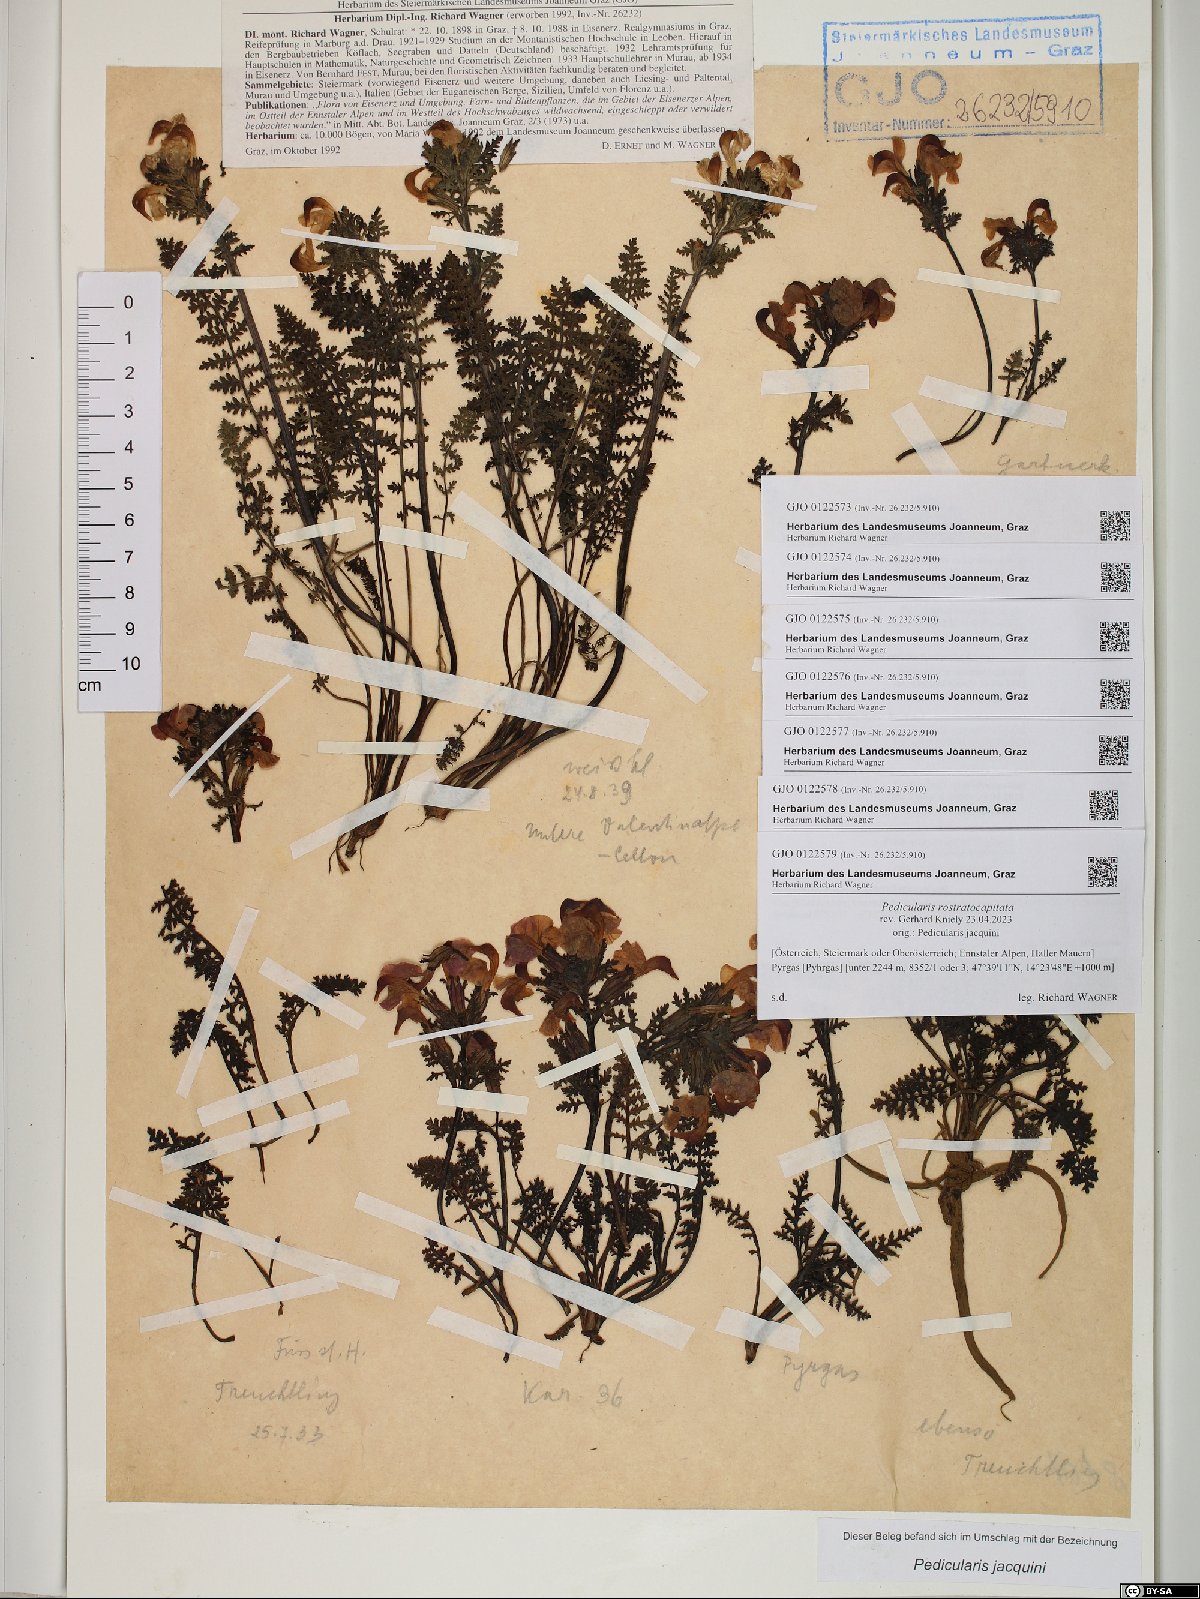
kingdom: Plantae
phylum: Tracheophyta
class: Magnoliopsida
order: Lamiales
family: Orobanchaceae
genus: Pedicularis
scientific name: Pedicularis rostratocapitata
